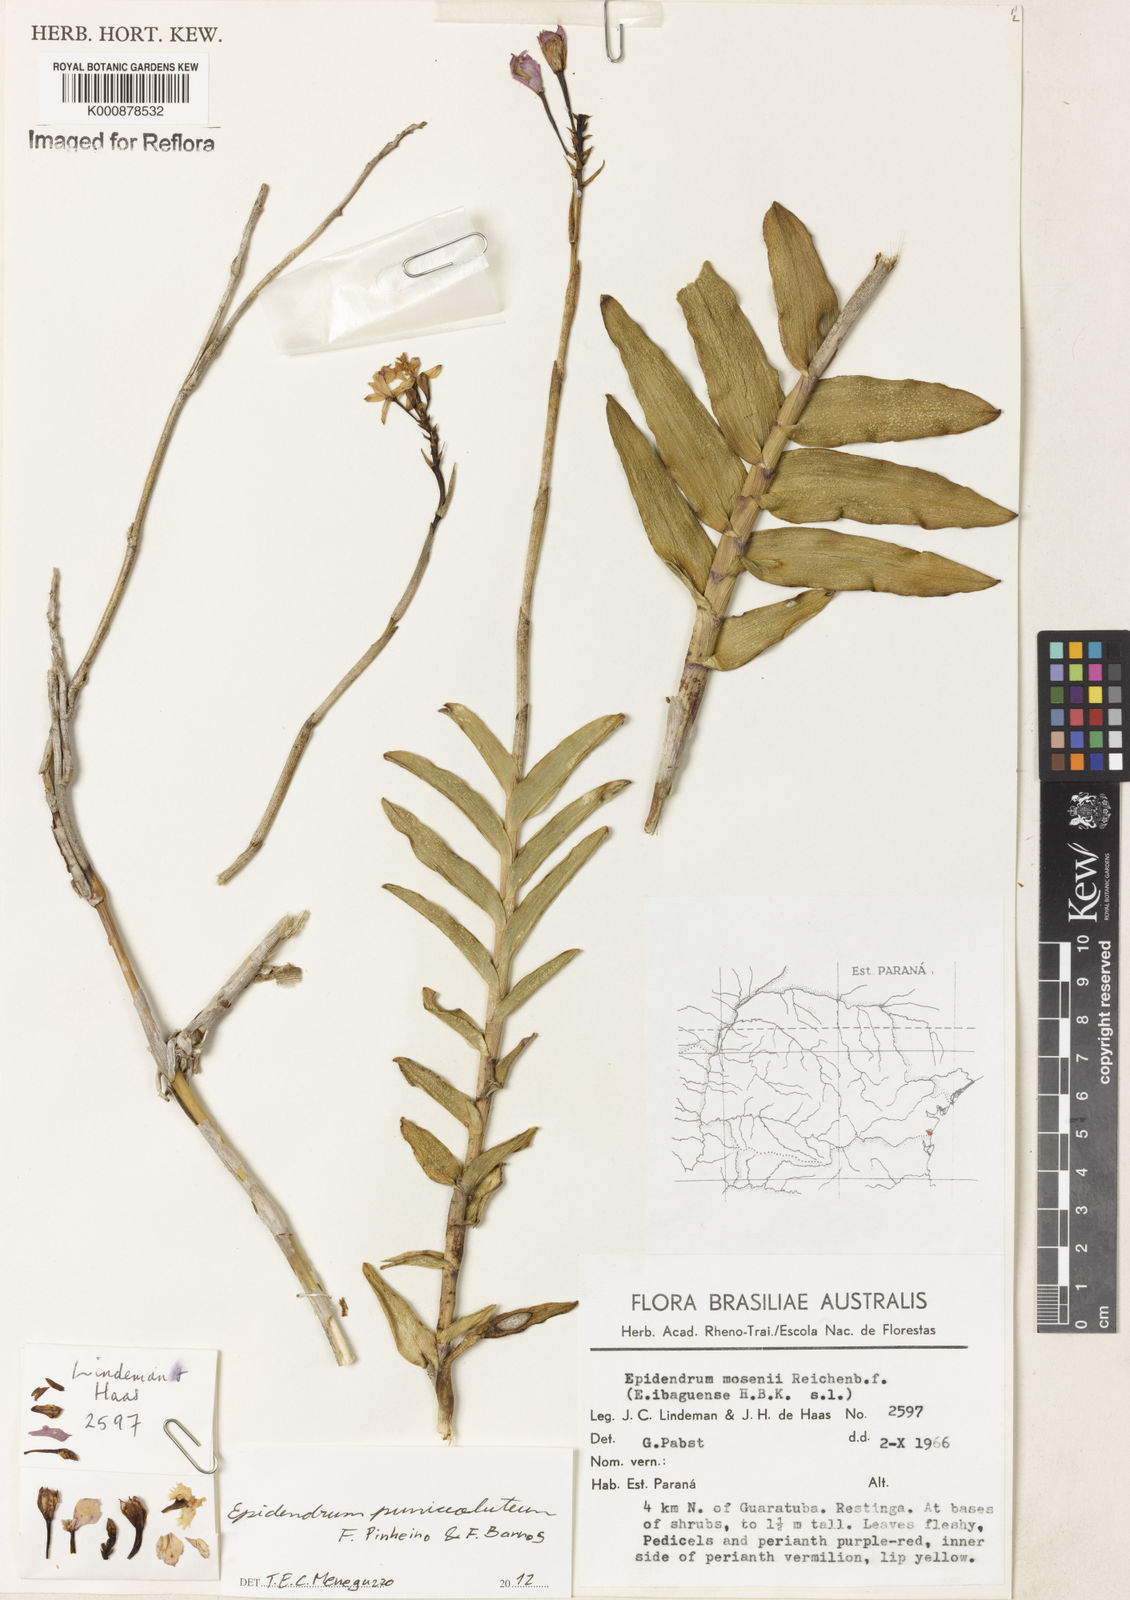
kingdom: Plantae
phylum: Tracheophyta
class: Liliopsida
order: Asparagales
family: Orchidaceae
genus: Epidendrum
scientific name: Epidendrum puniceoluteum
